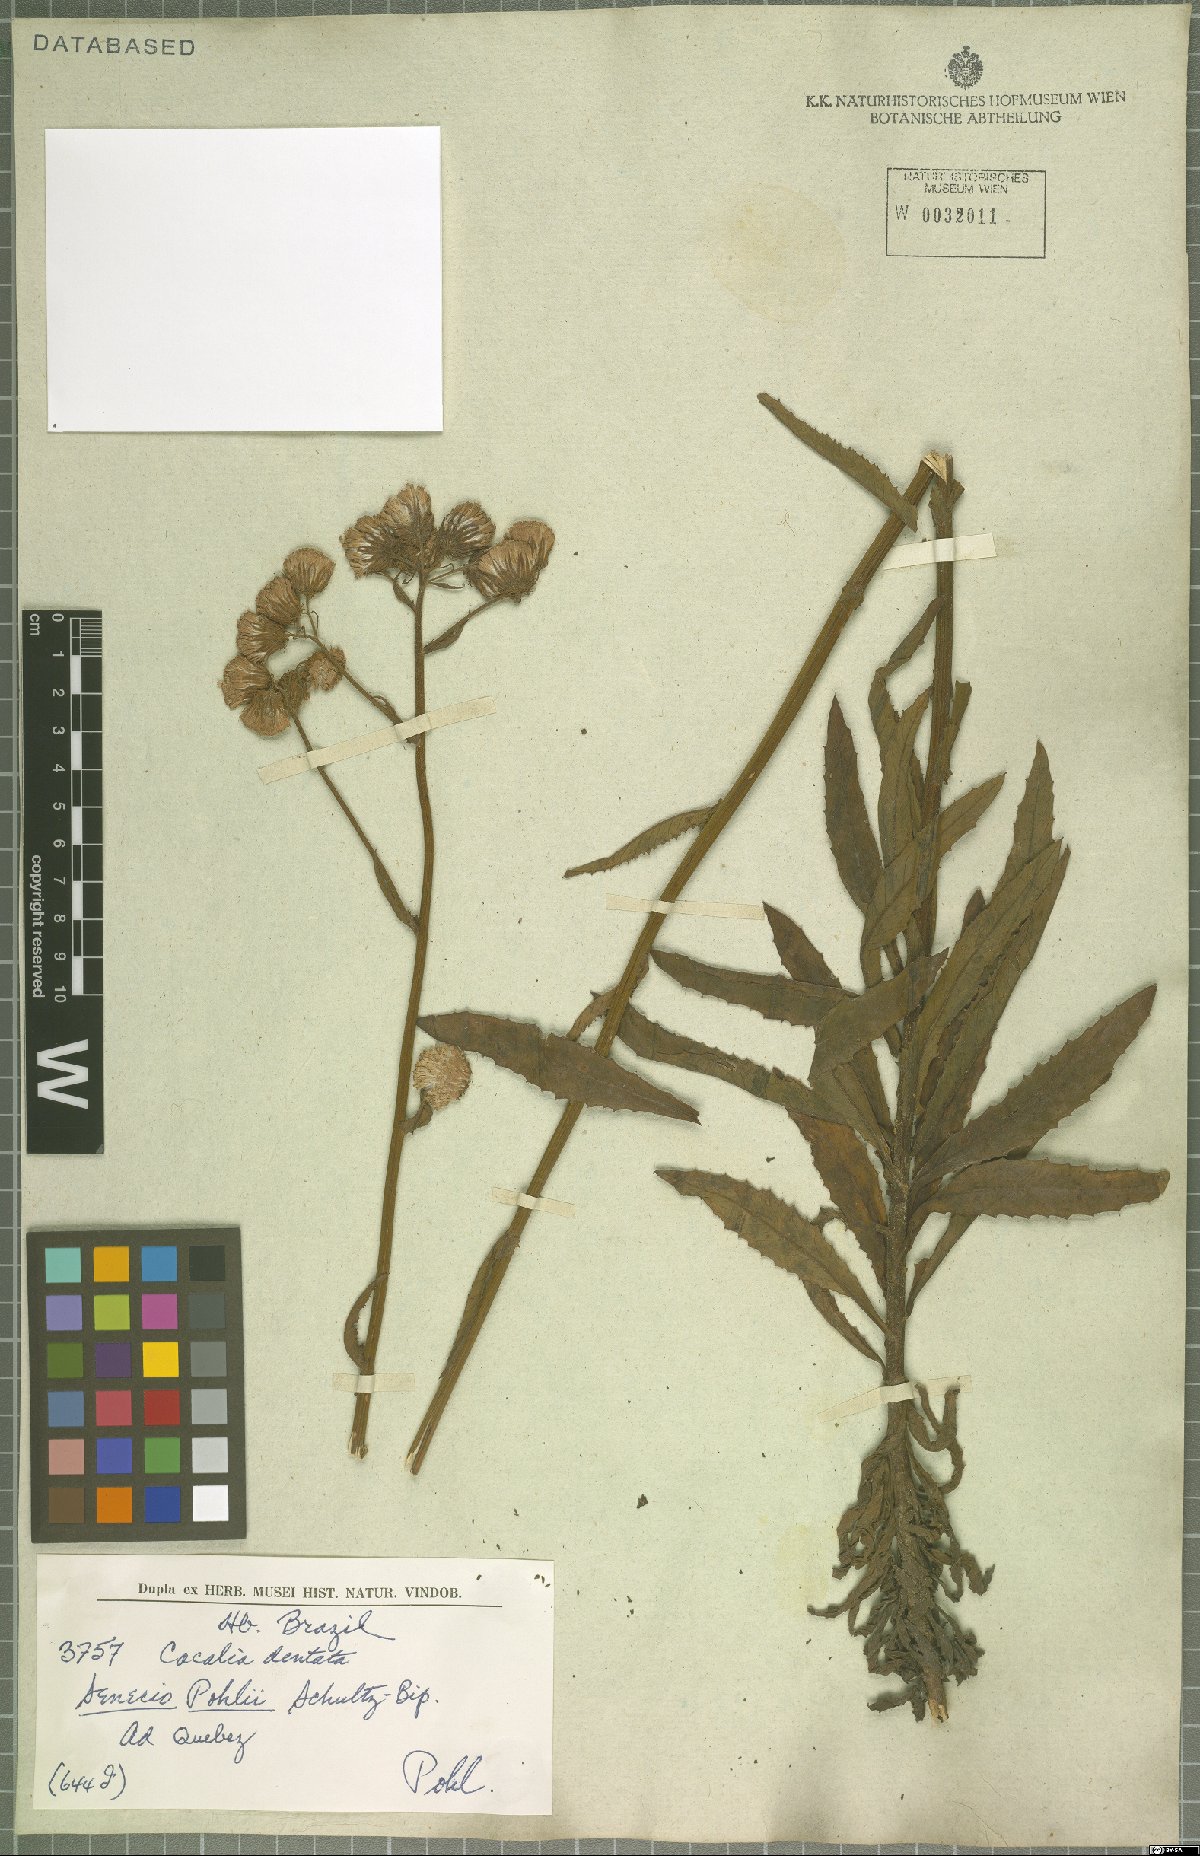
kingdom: Plantae
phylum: Tracheophyta
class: Magnoliopsida
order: Asterales
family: Asteraceae
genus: Pseudogynoxys
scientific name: Pseudogynoxys pohlii
